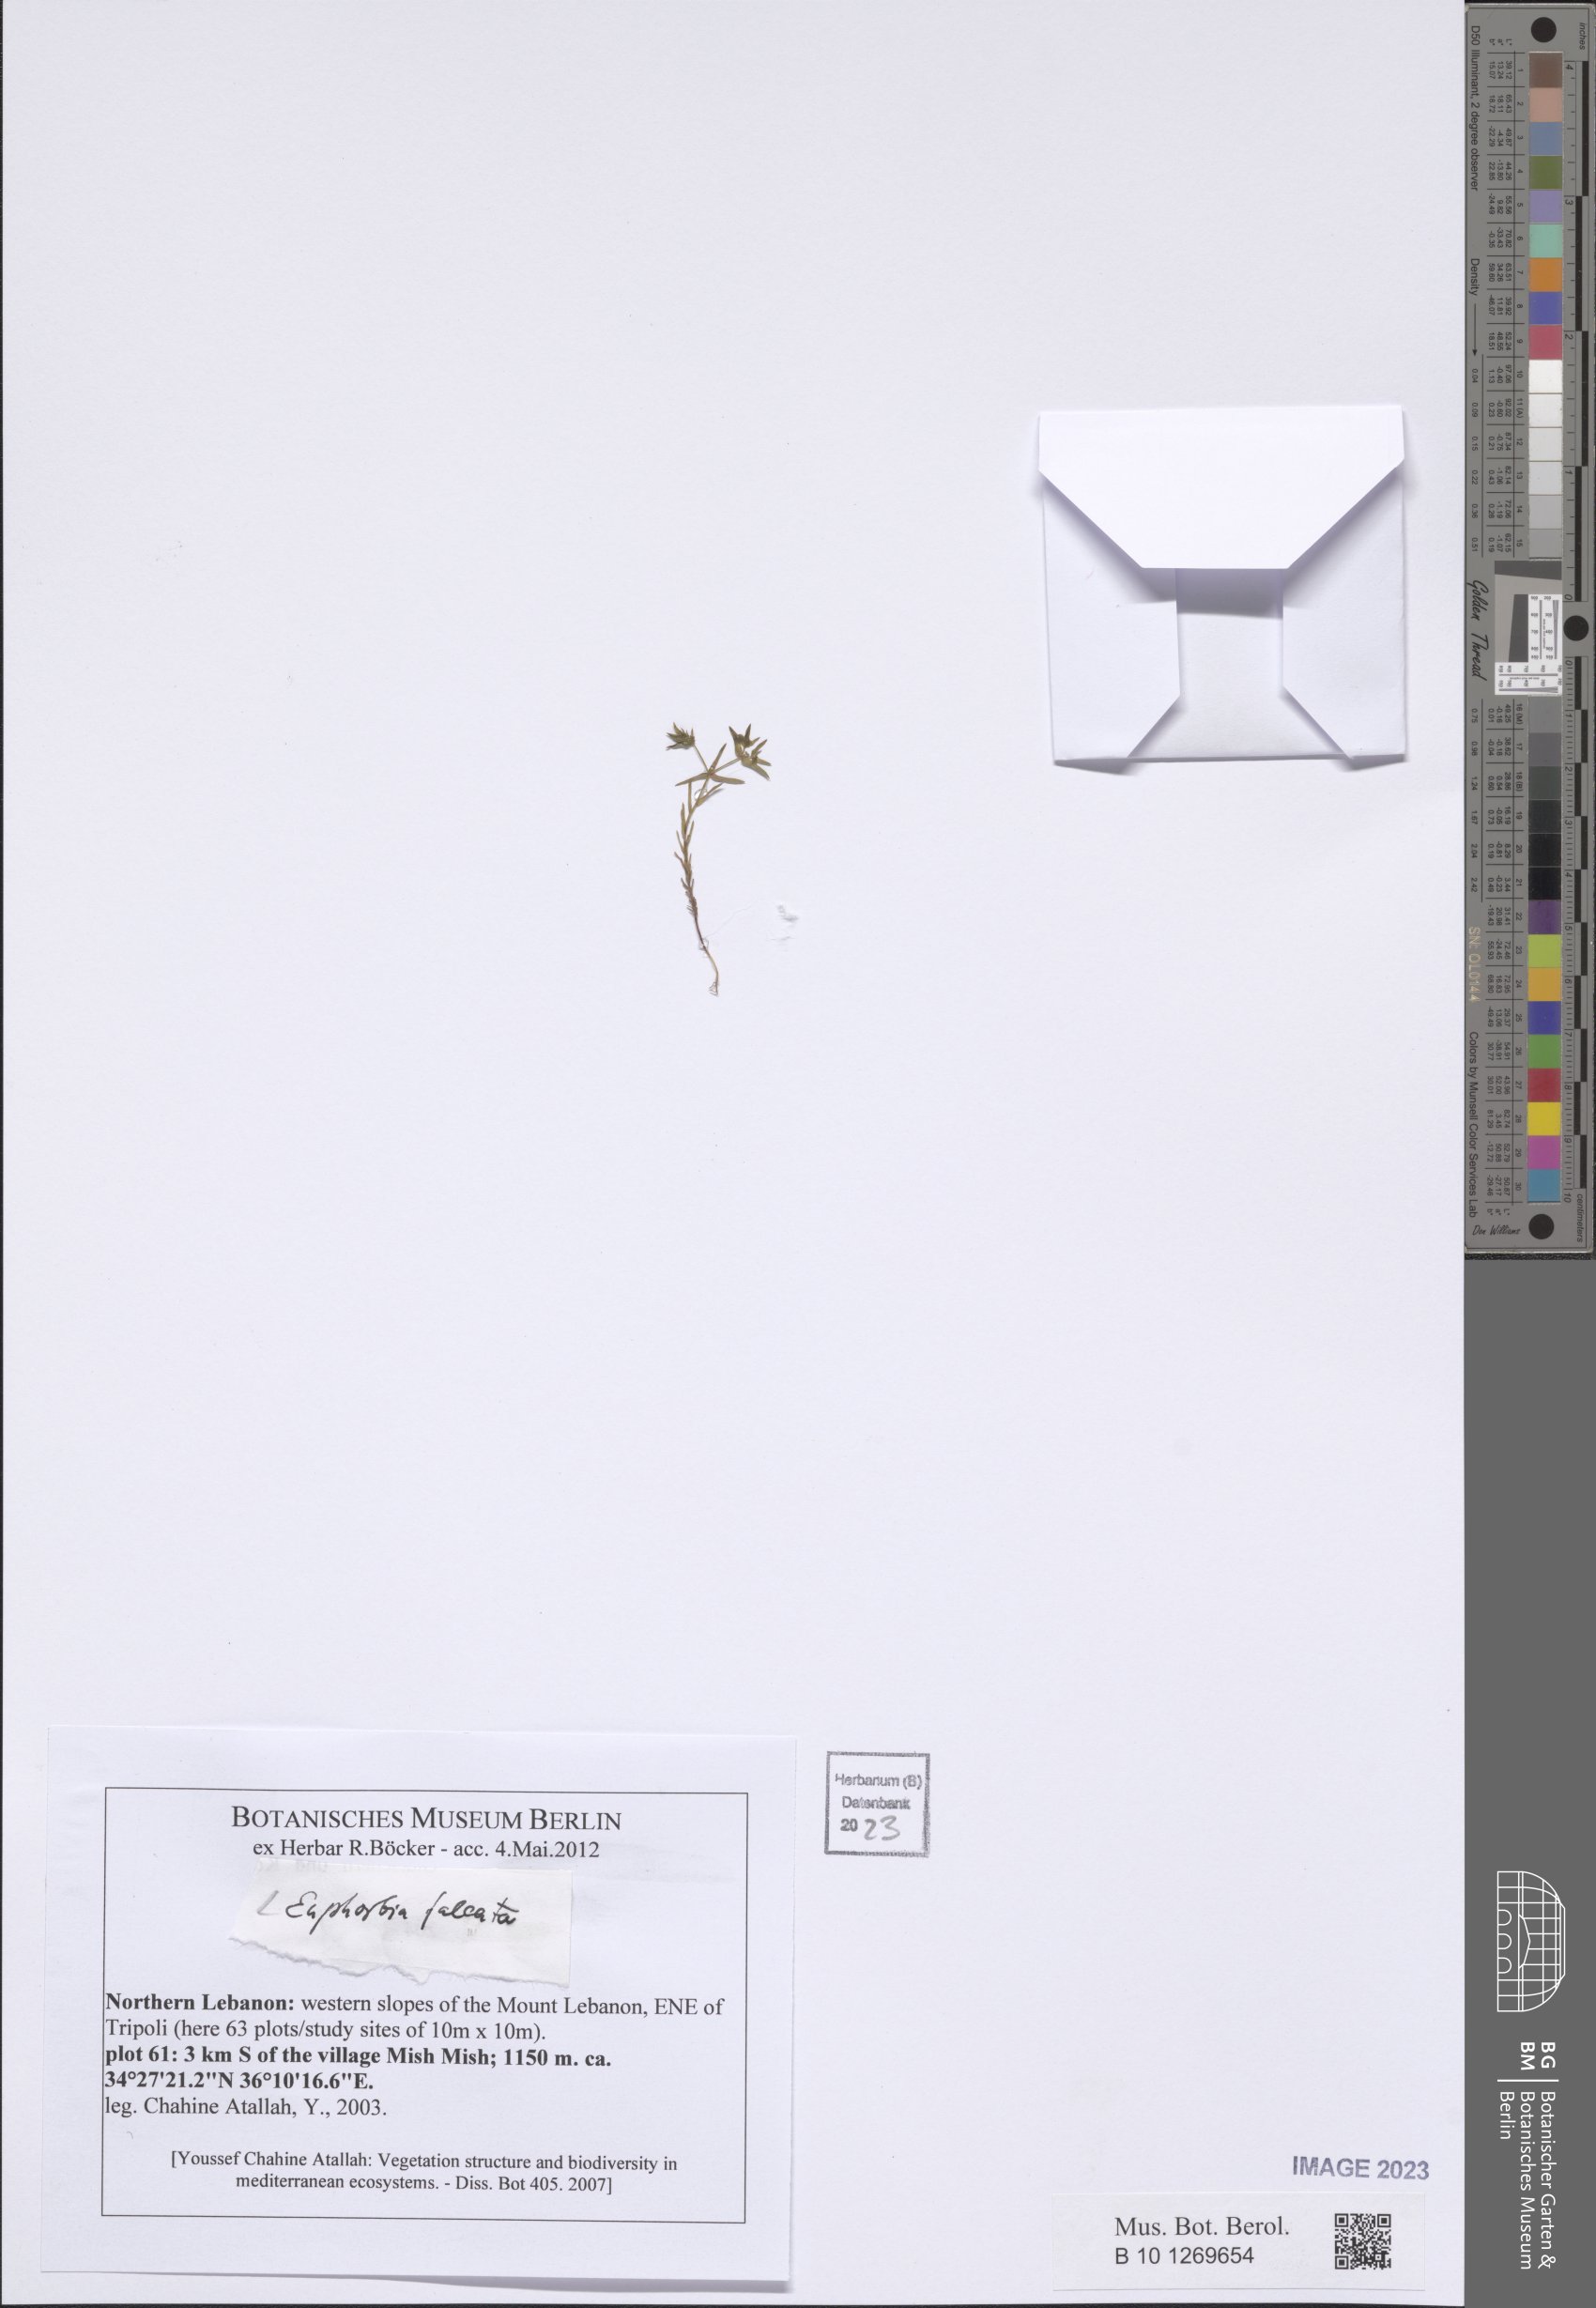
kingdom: Plantae
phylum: Tracheophyta
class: Magnoliopsida
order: Malpighiales
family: Euphorbiaceae
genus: Euphorbia
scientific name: Euphorbia falcata
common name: Sickle spurge
